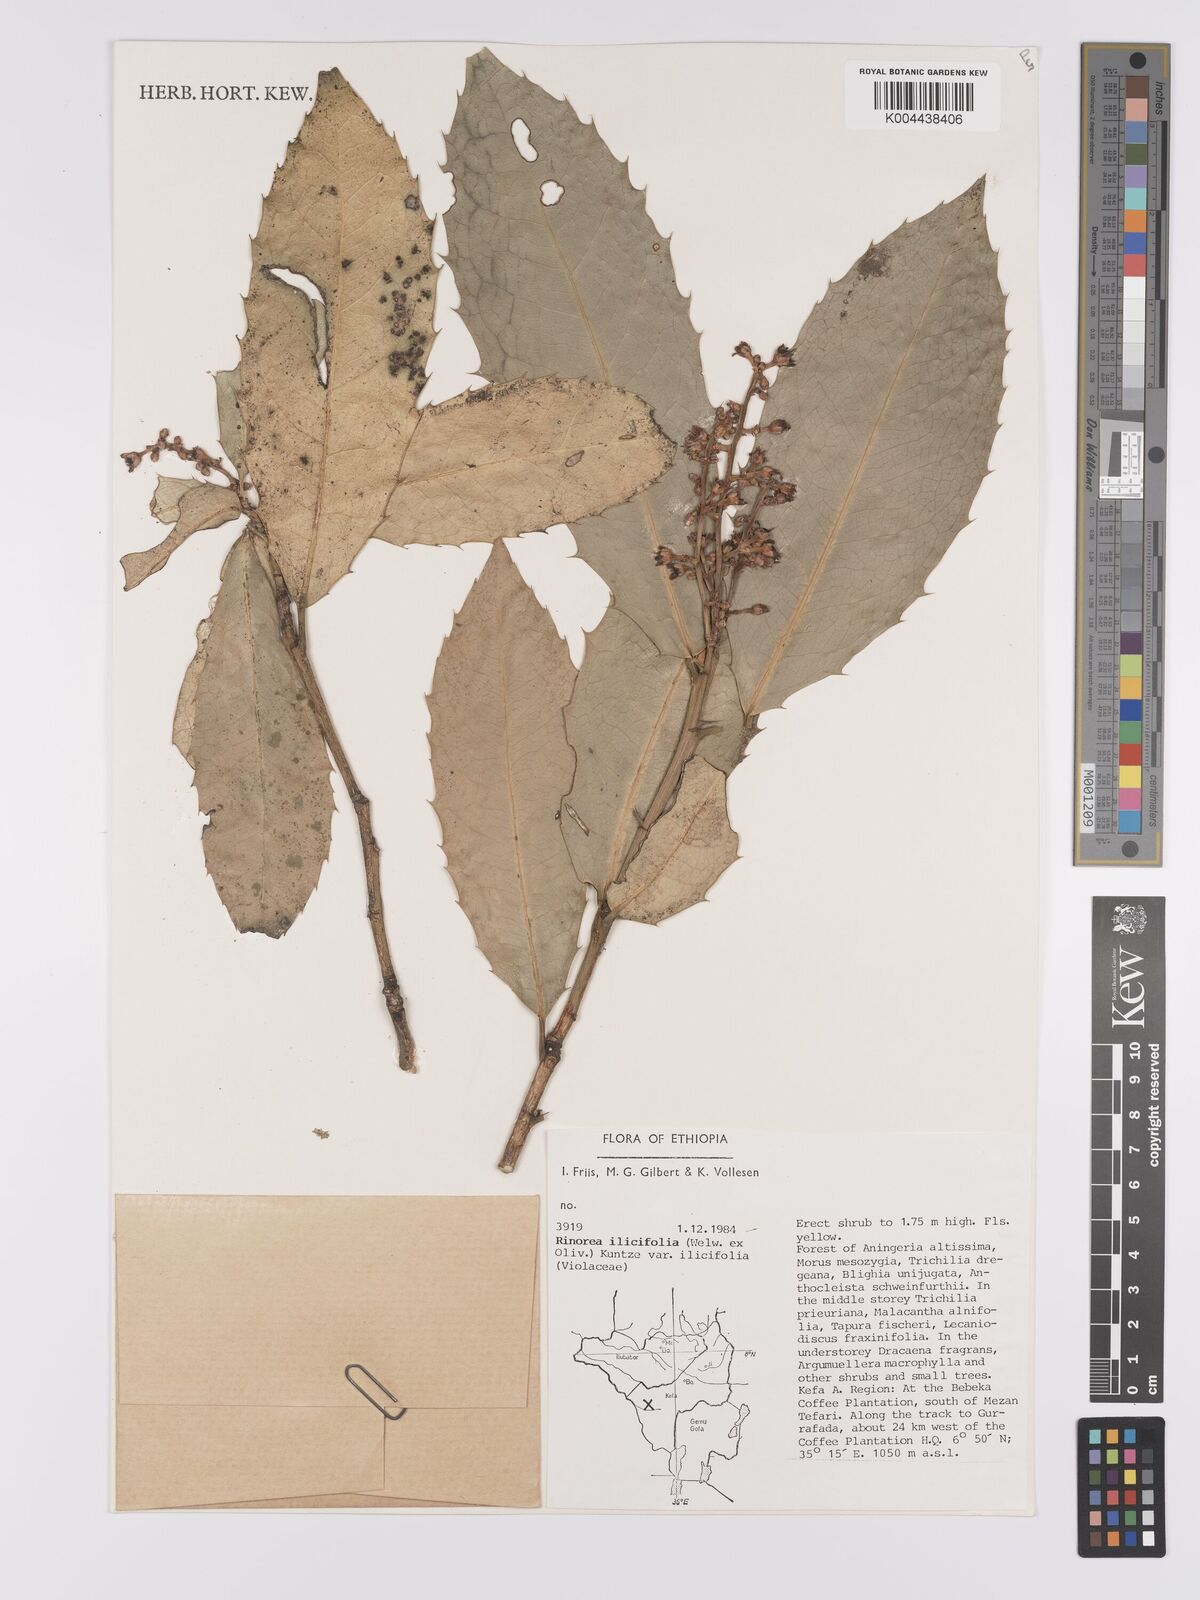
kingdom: Plantae
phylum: Tracheophyta
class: Magnoliopsida
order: Malpighiales
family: Violaceae
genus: Rinorea
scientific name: Rinorea ilicifolia
